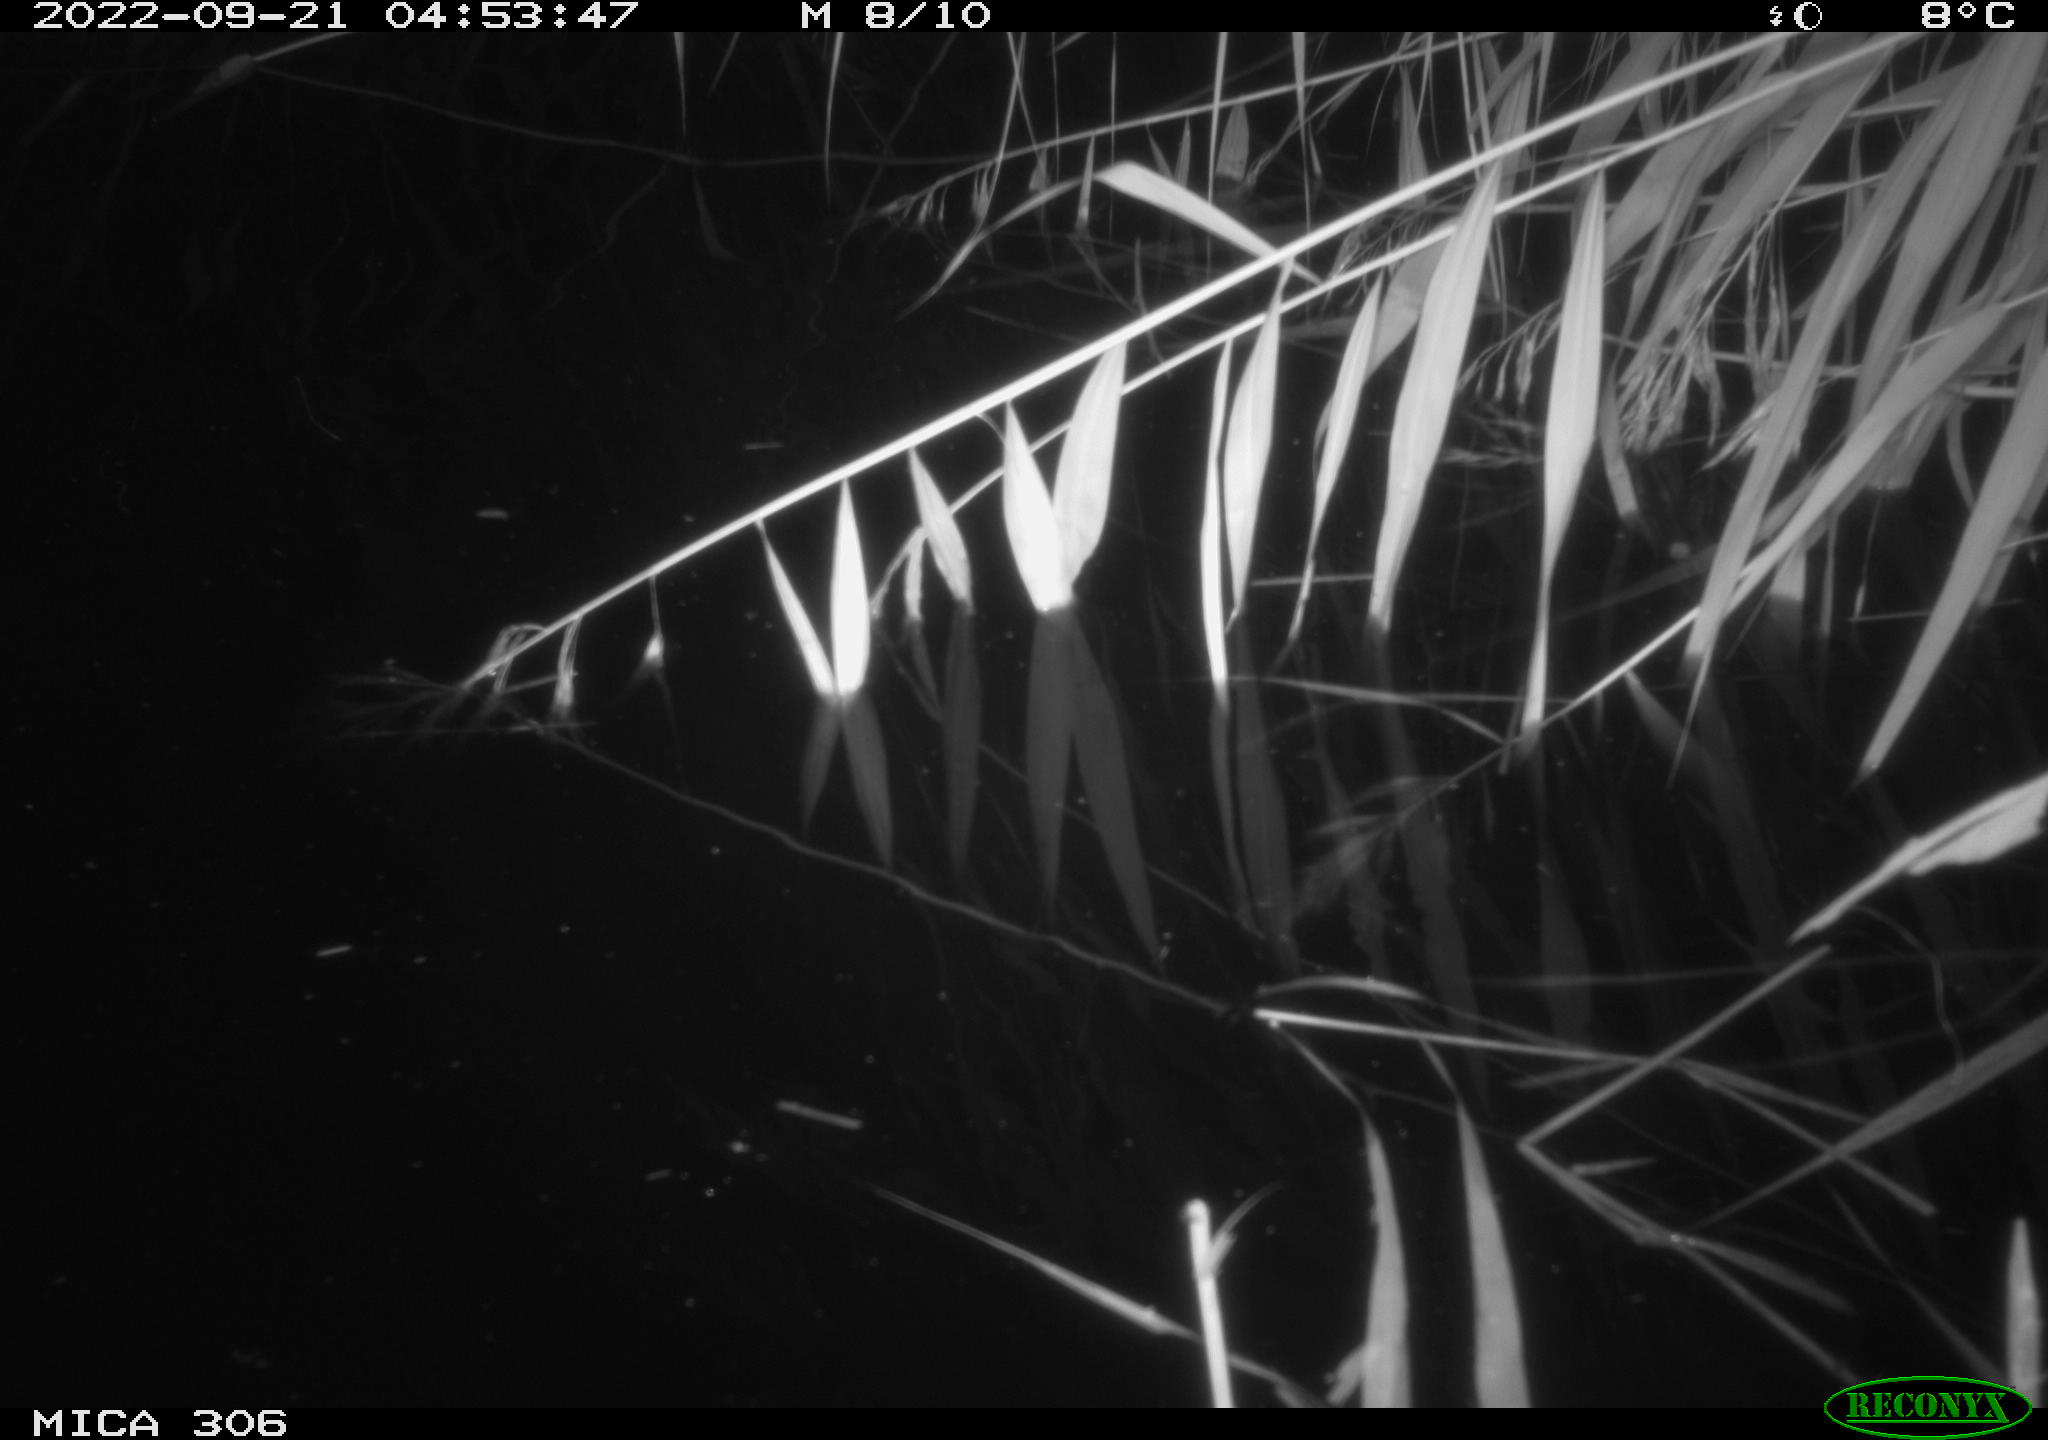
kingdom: Animalia
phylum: Chordata
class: Mammalia
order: Rodentia
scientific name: Rodentia
